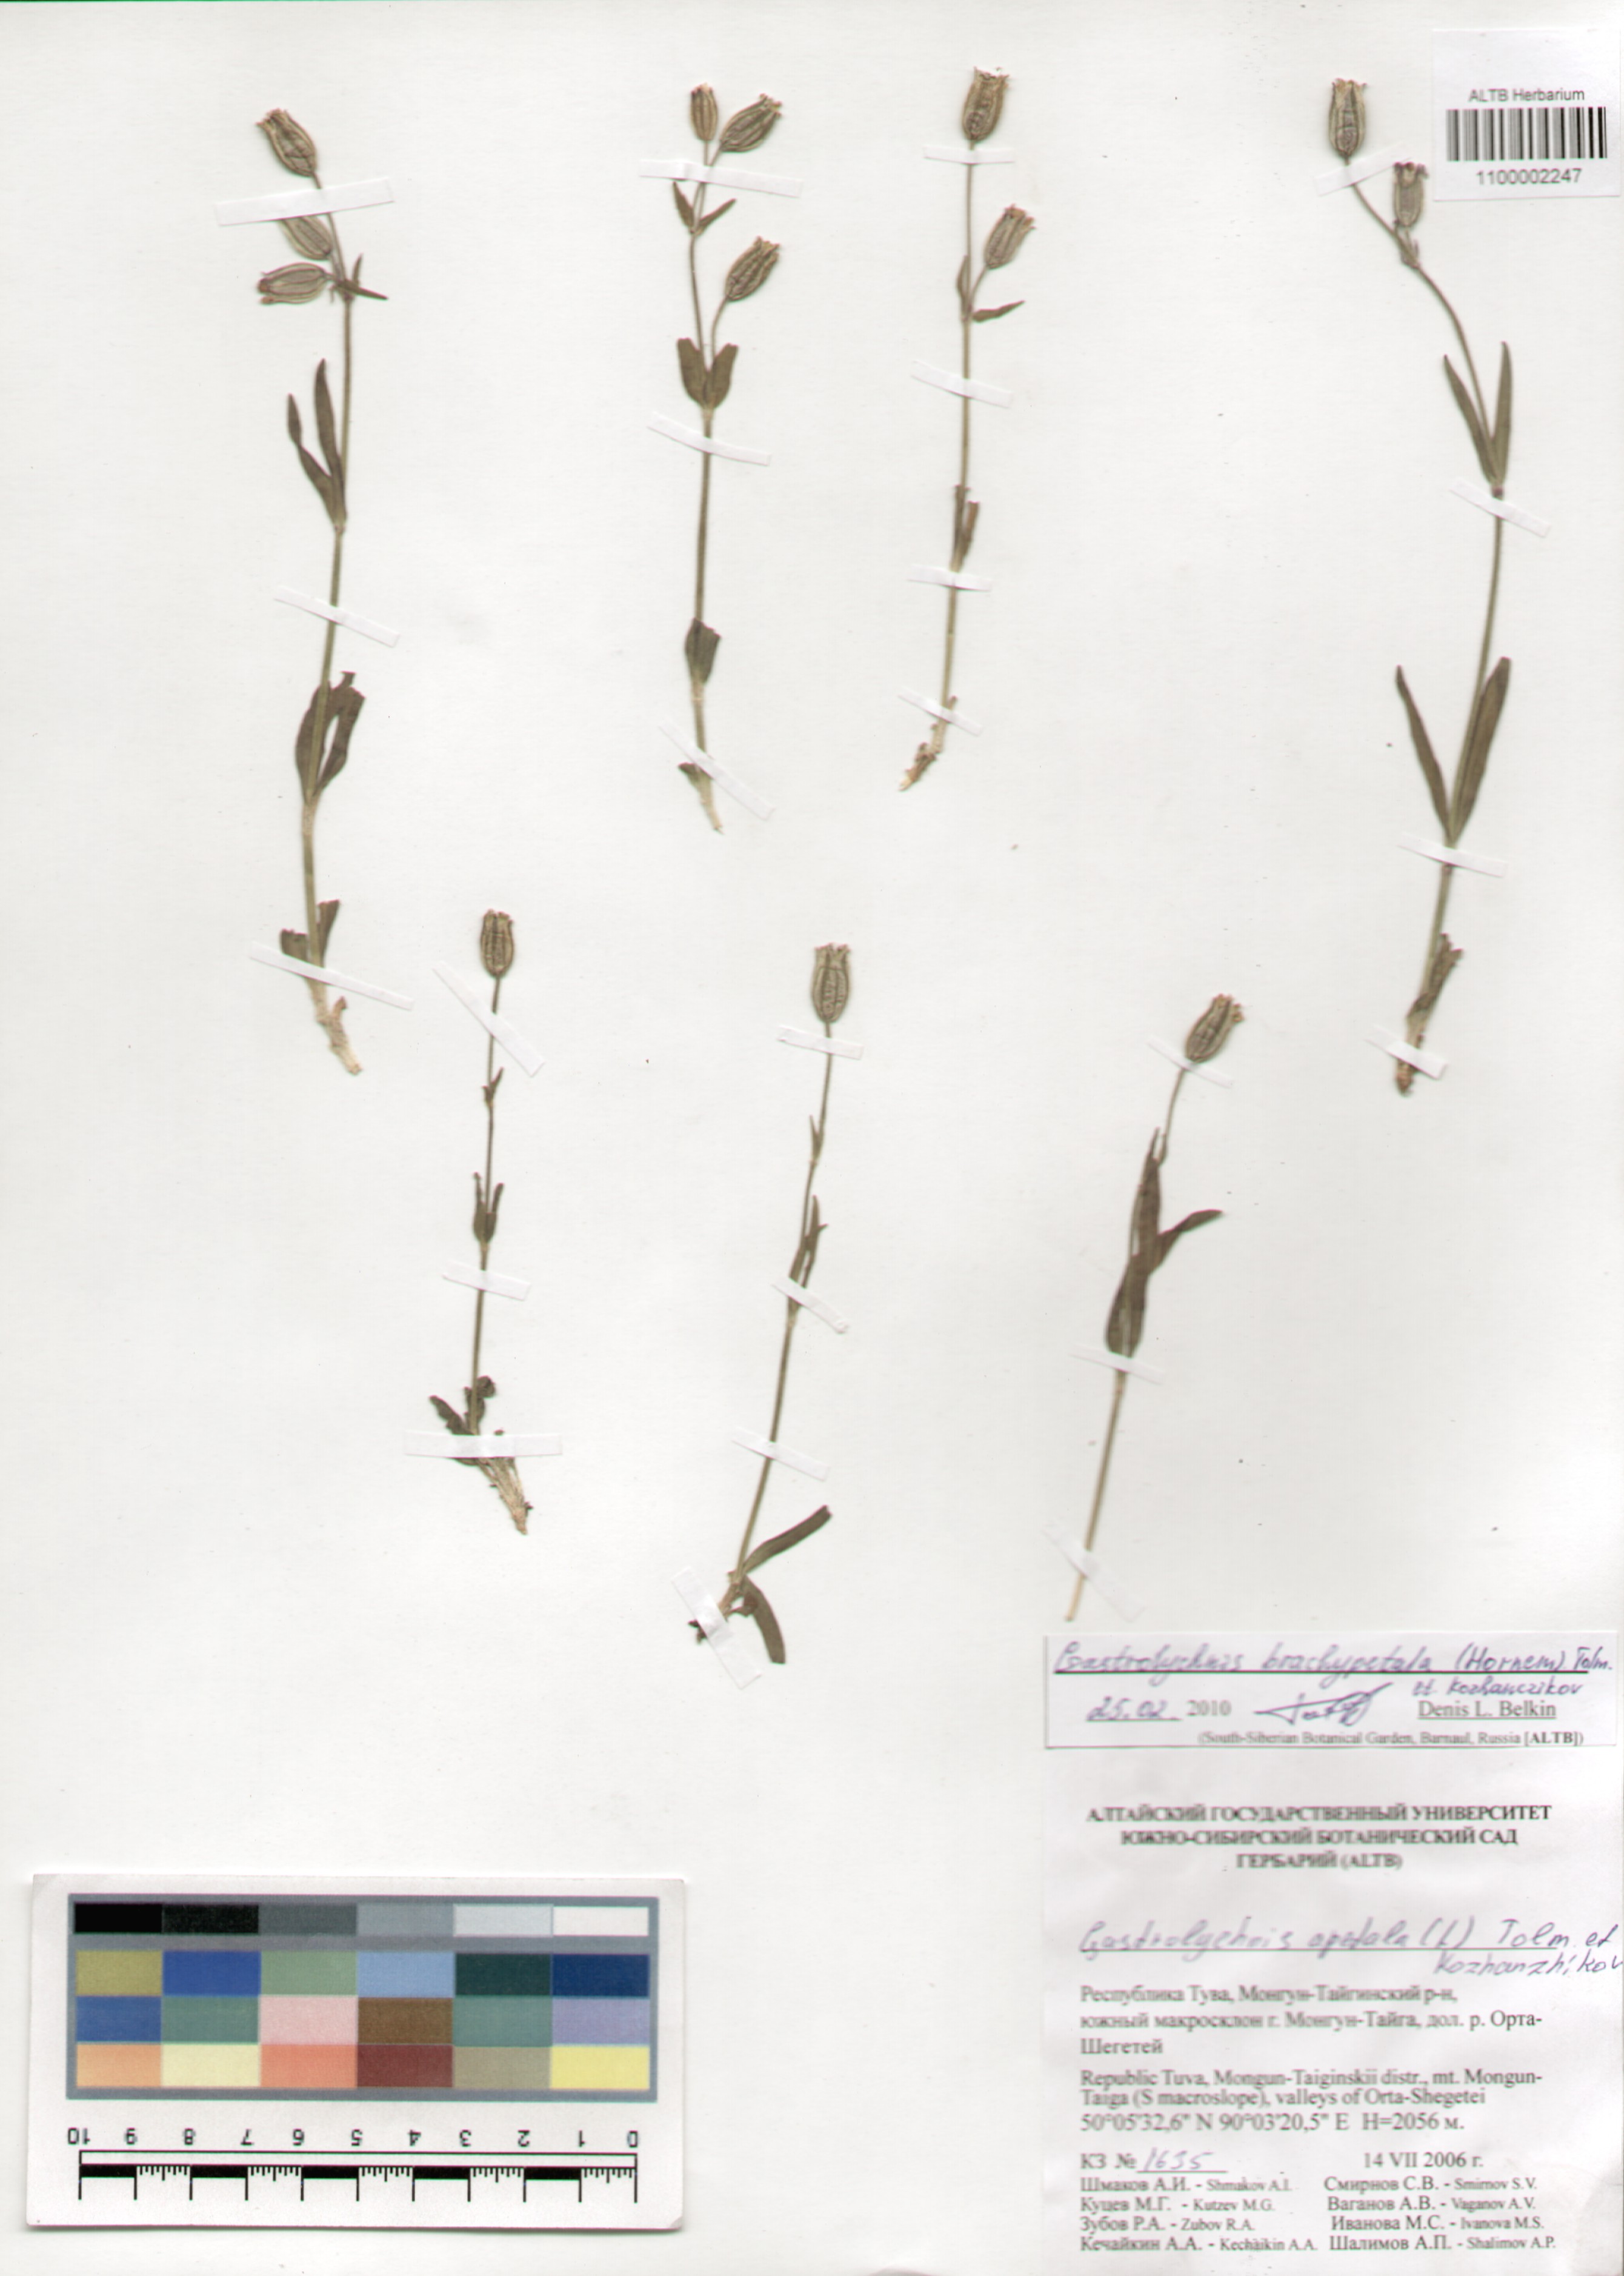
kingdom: Plantae
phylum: Tracheophyta
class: Magnoliopsida
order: Caryophyllales
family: Caryophyllaceae
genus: Silene
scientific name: Silene songarica
